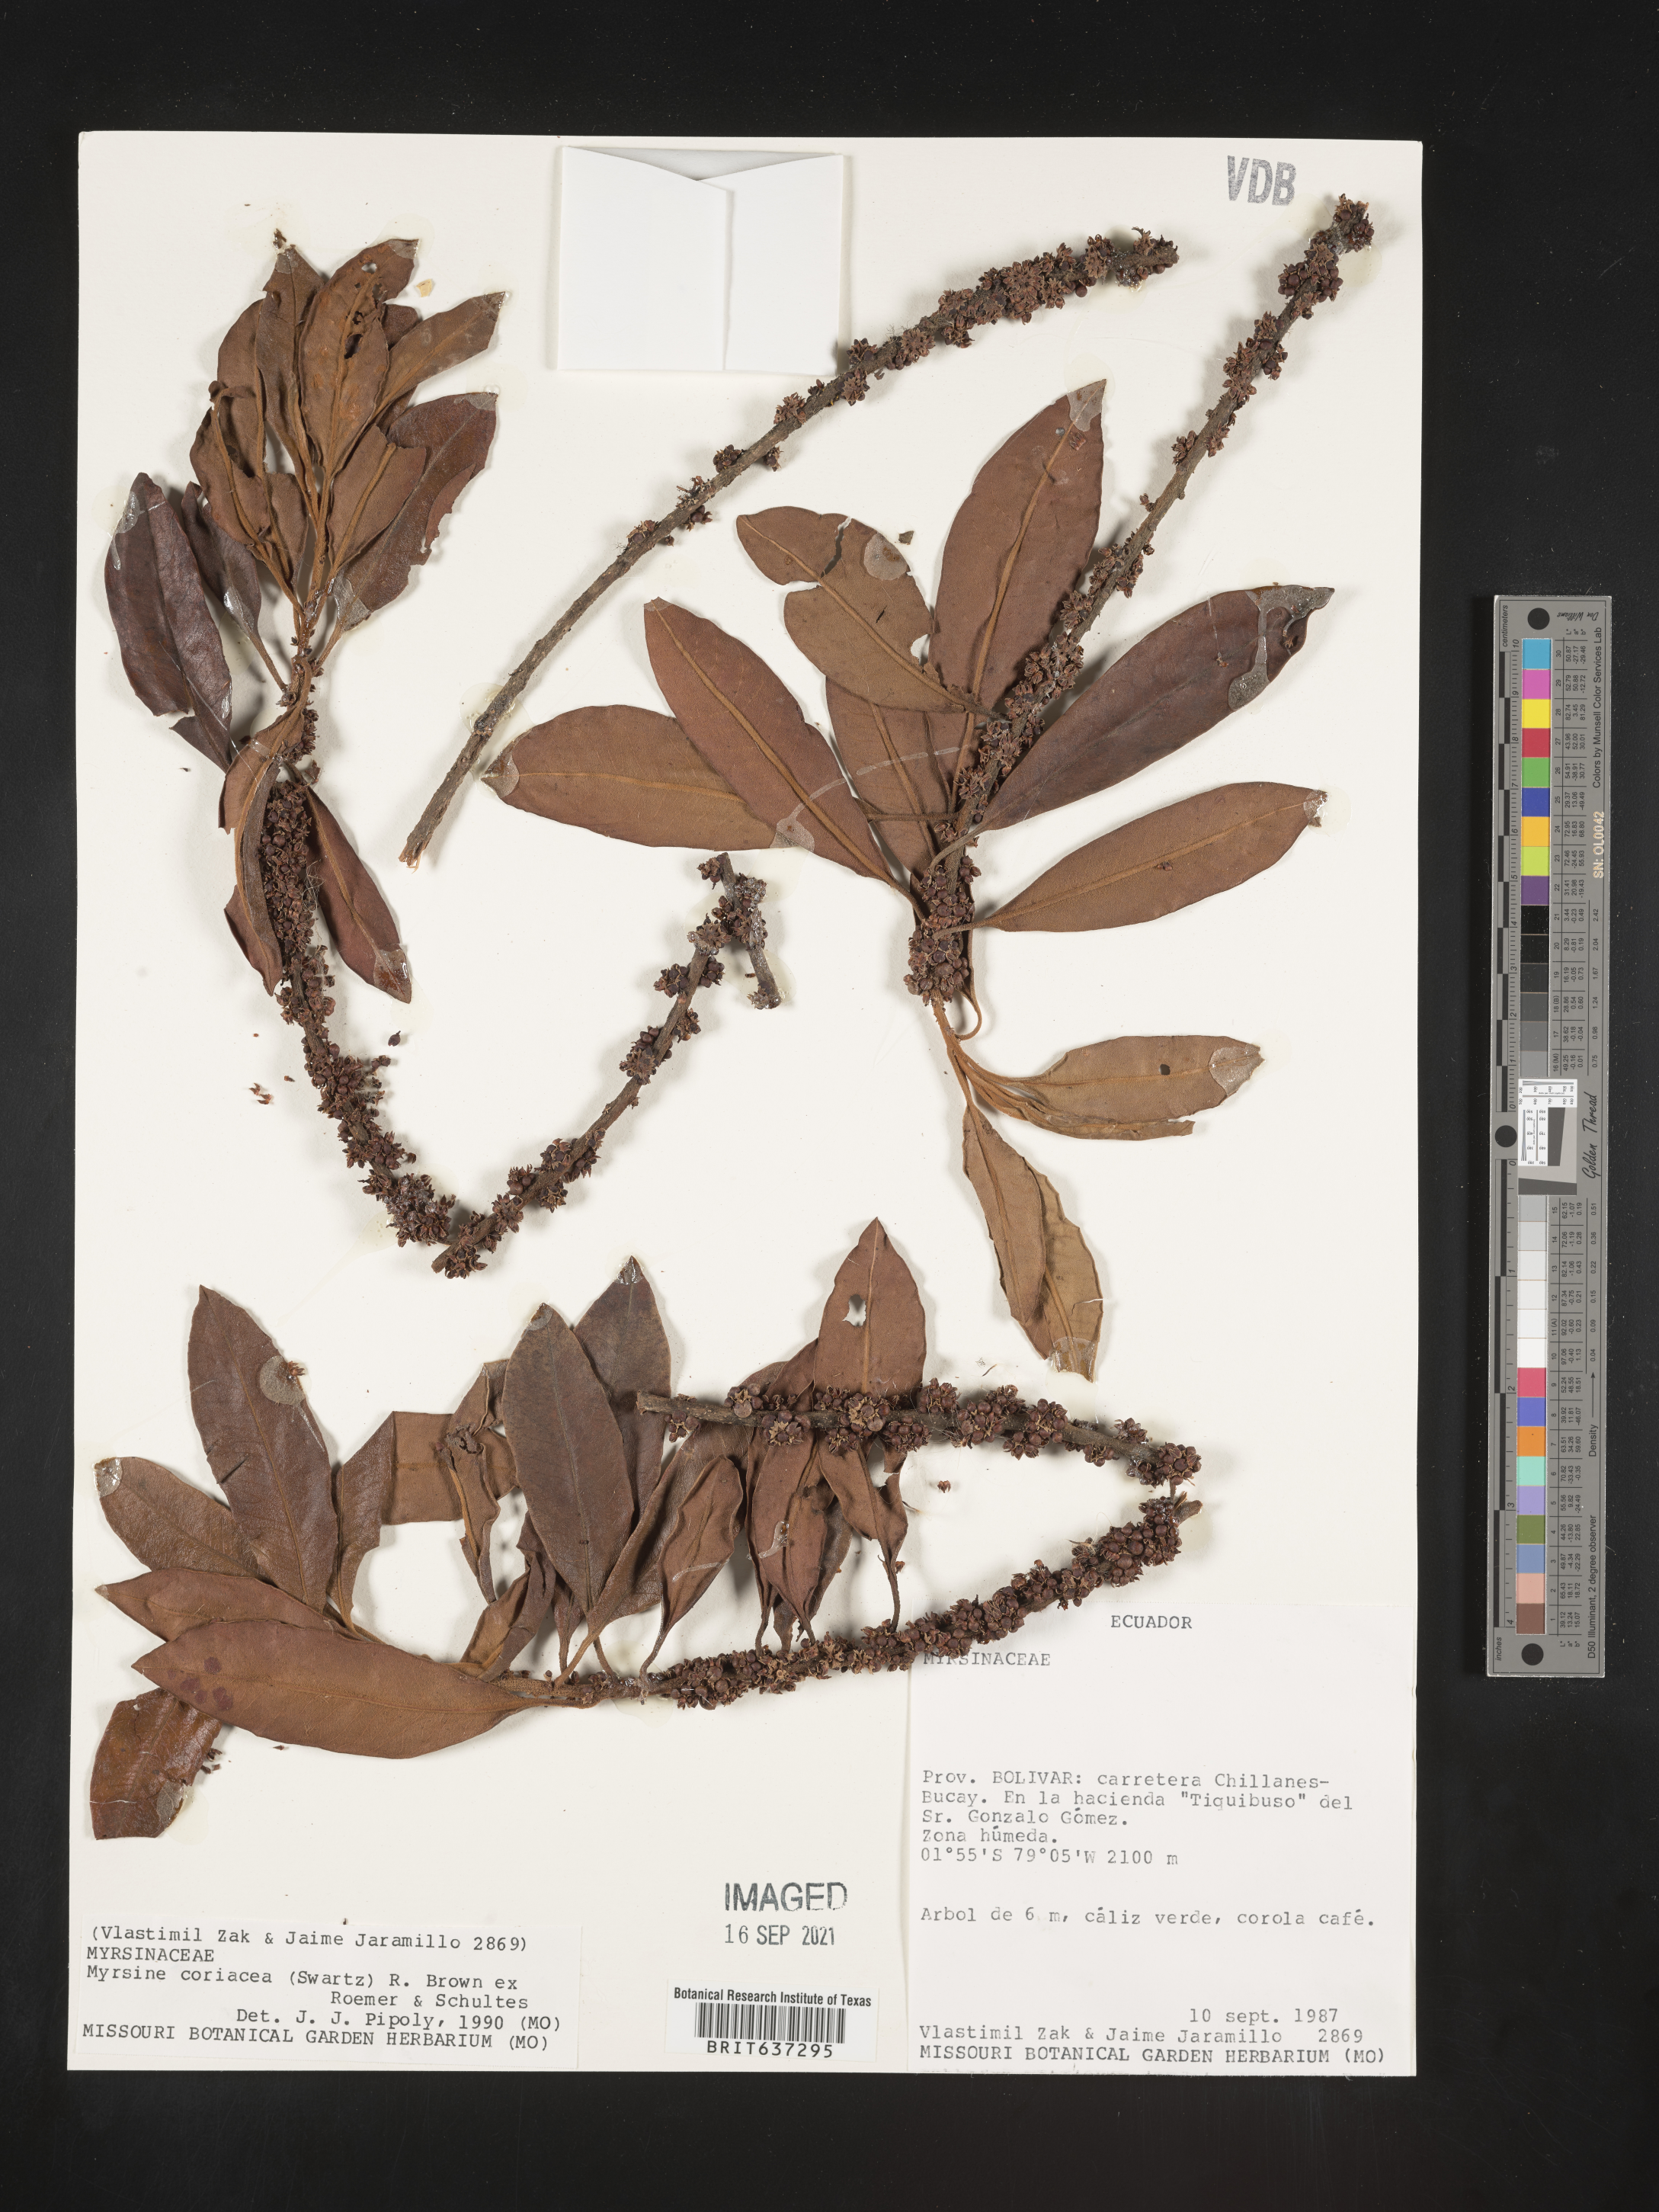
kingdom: Plantae
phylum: Tracheophyta
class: Magnoliopsida
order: Ericales
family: Primulaceae
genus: Myrsine
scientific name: Myrsine
